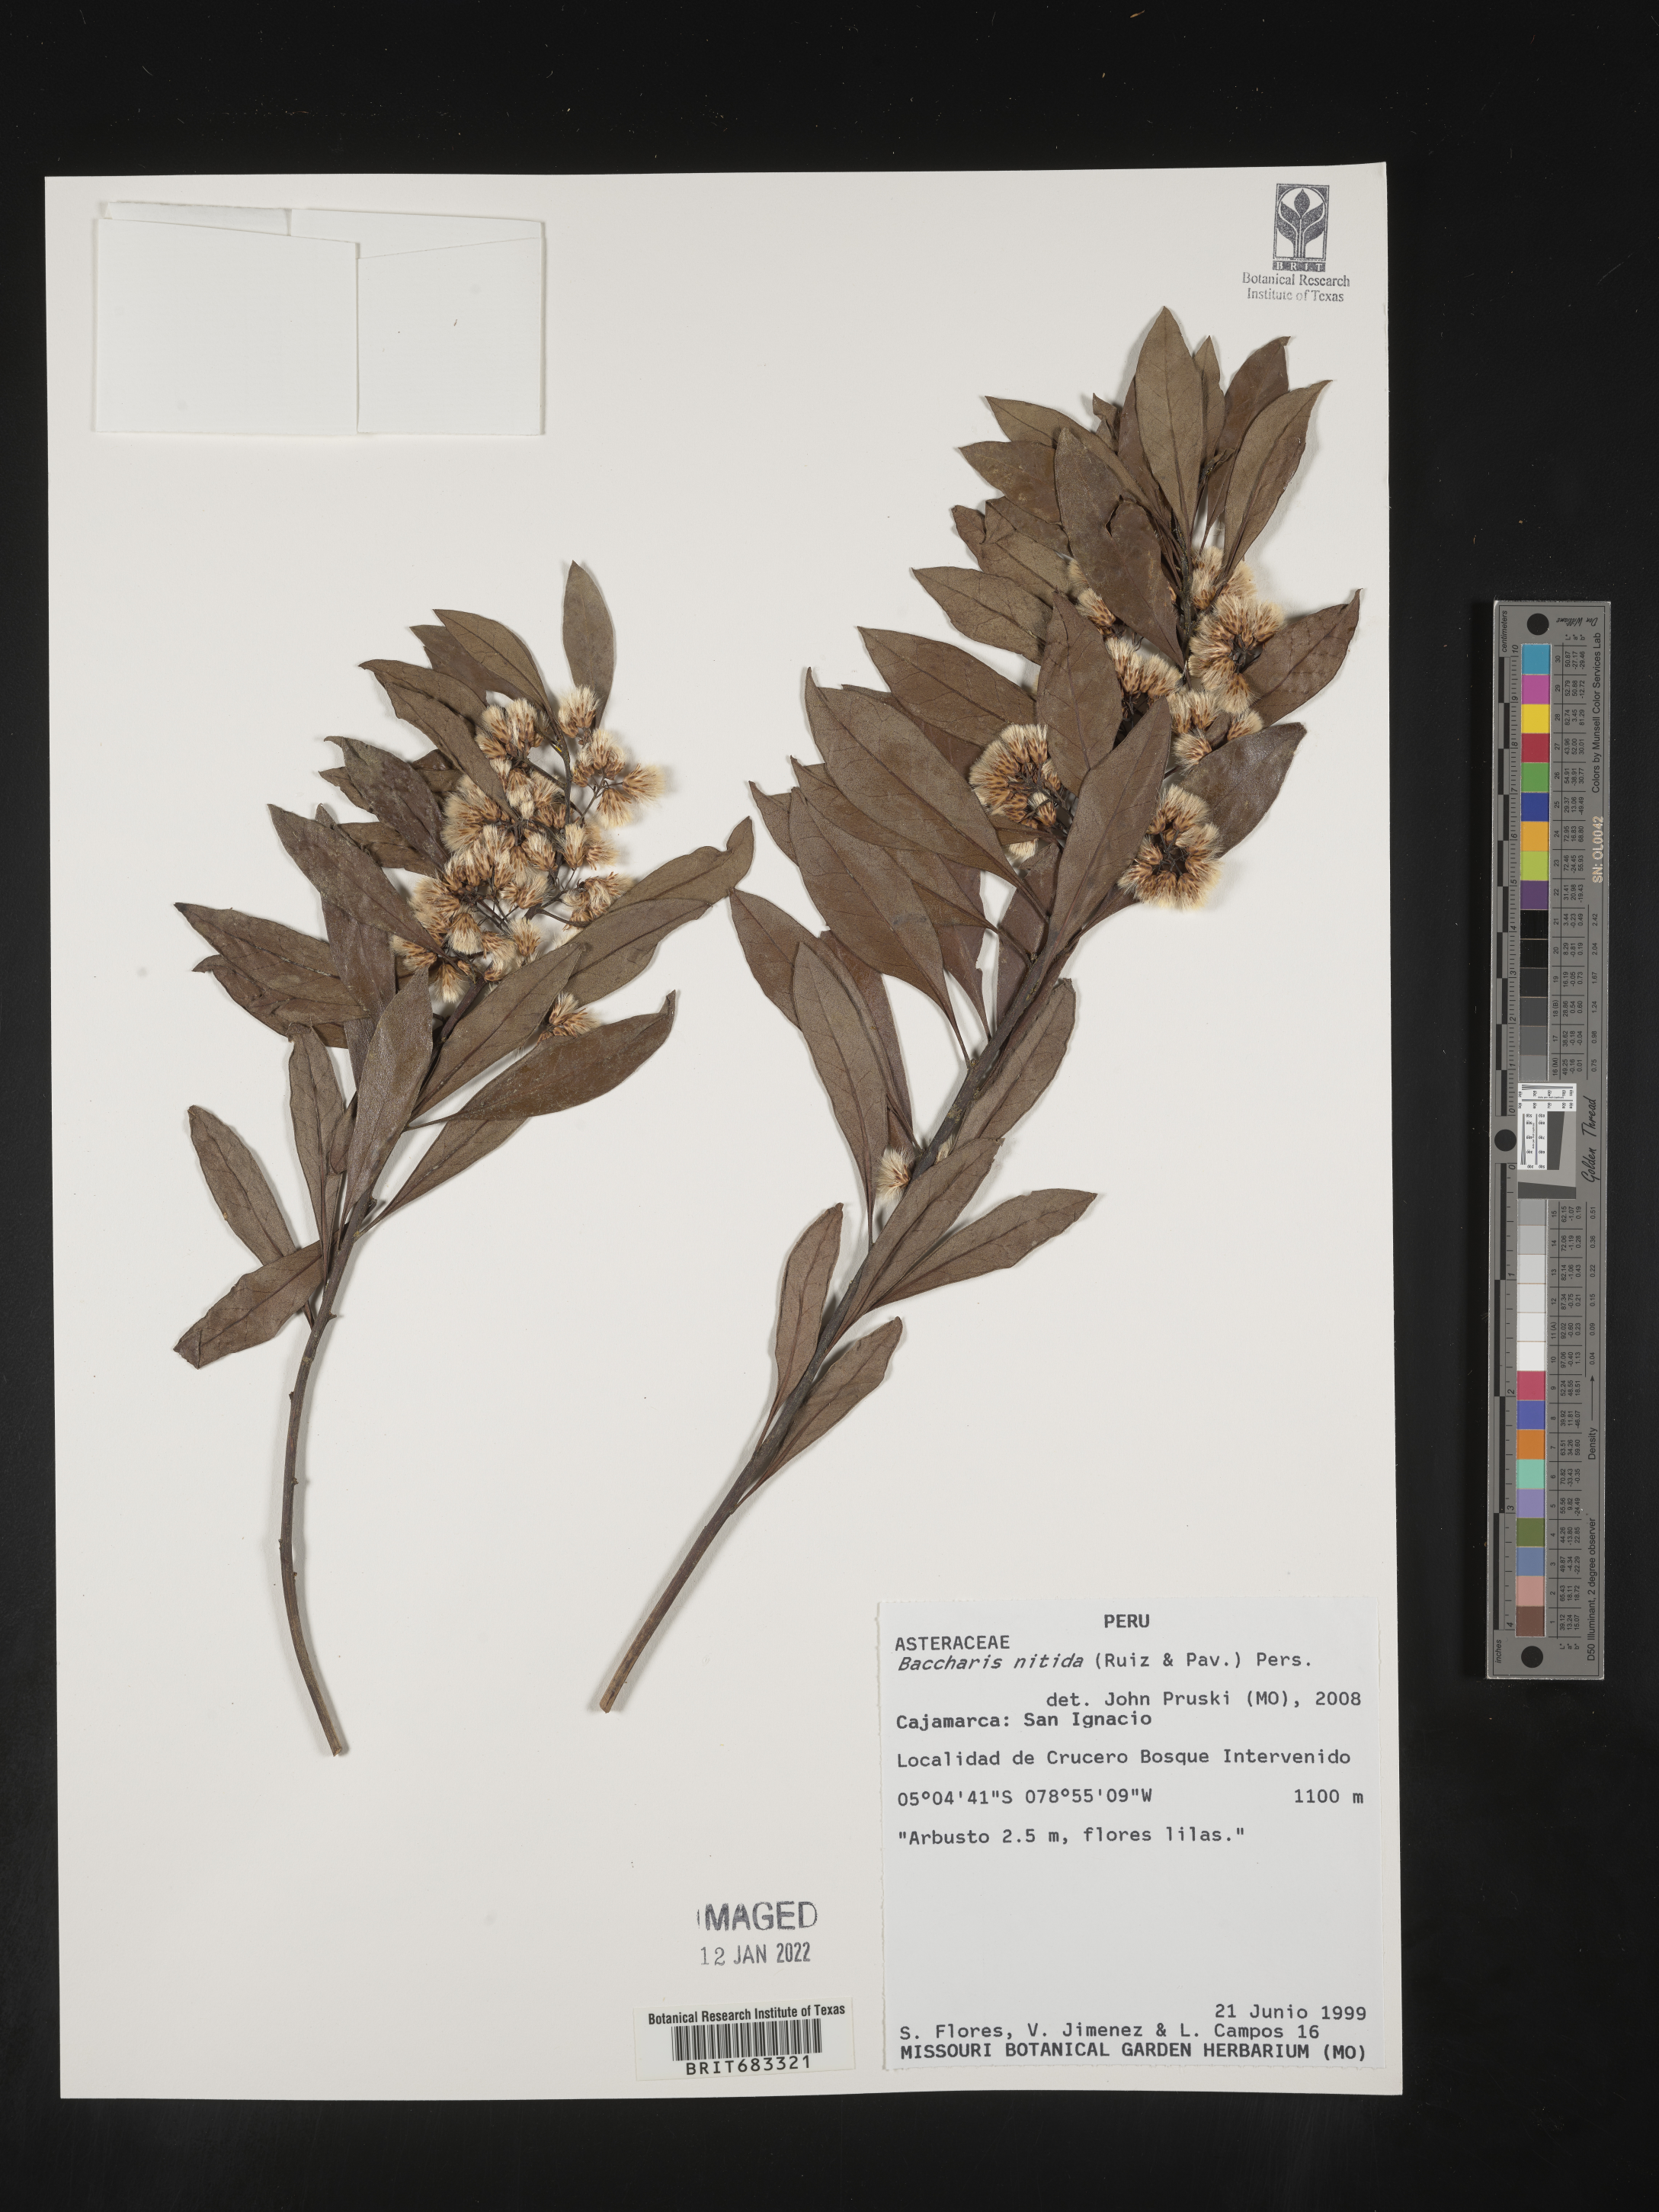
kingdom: Plantae
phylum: Tracheophyta
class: Magnoliopsida
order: Asterales
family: Asteraceae
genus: Baccharis
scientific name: Baccharis
